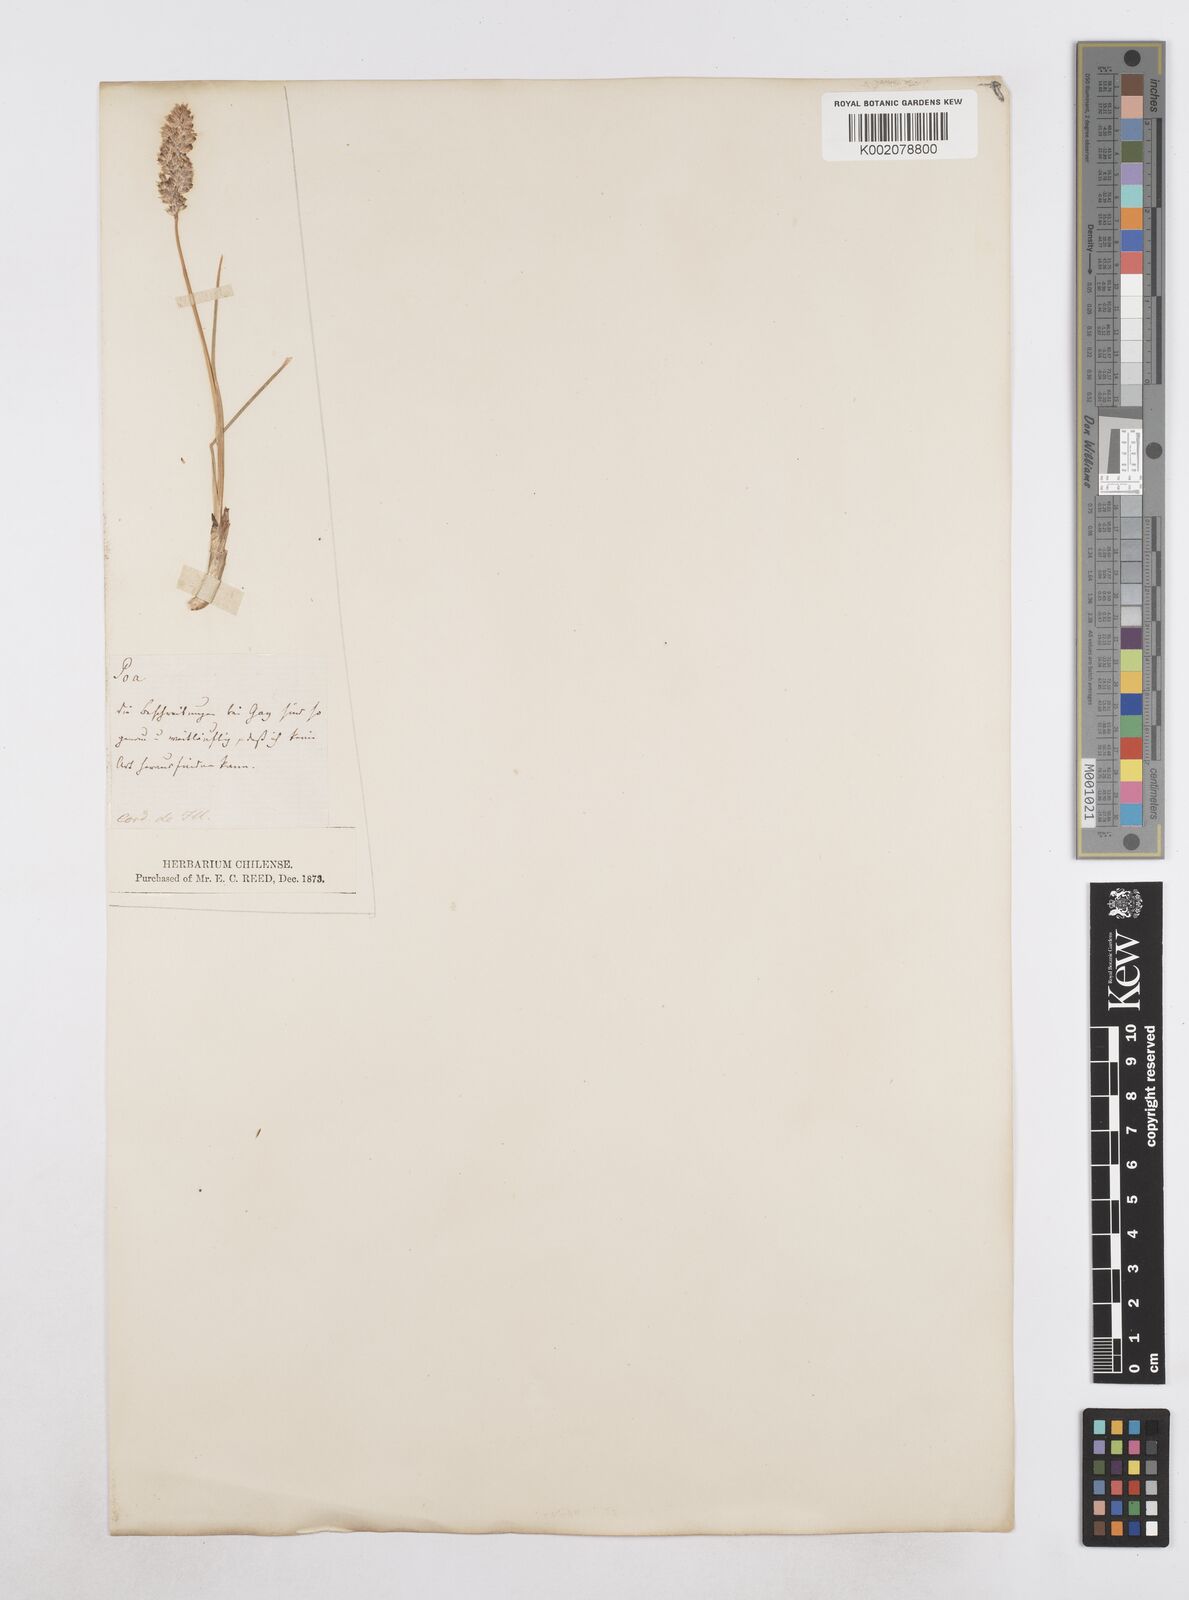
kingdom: Plantae
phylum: Tracheophyta
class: Liliopsida
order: Poales
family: Poaceae
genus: Poa
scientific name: Poa
